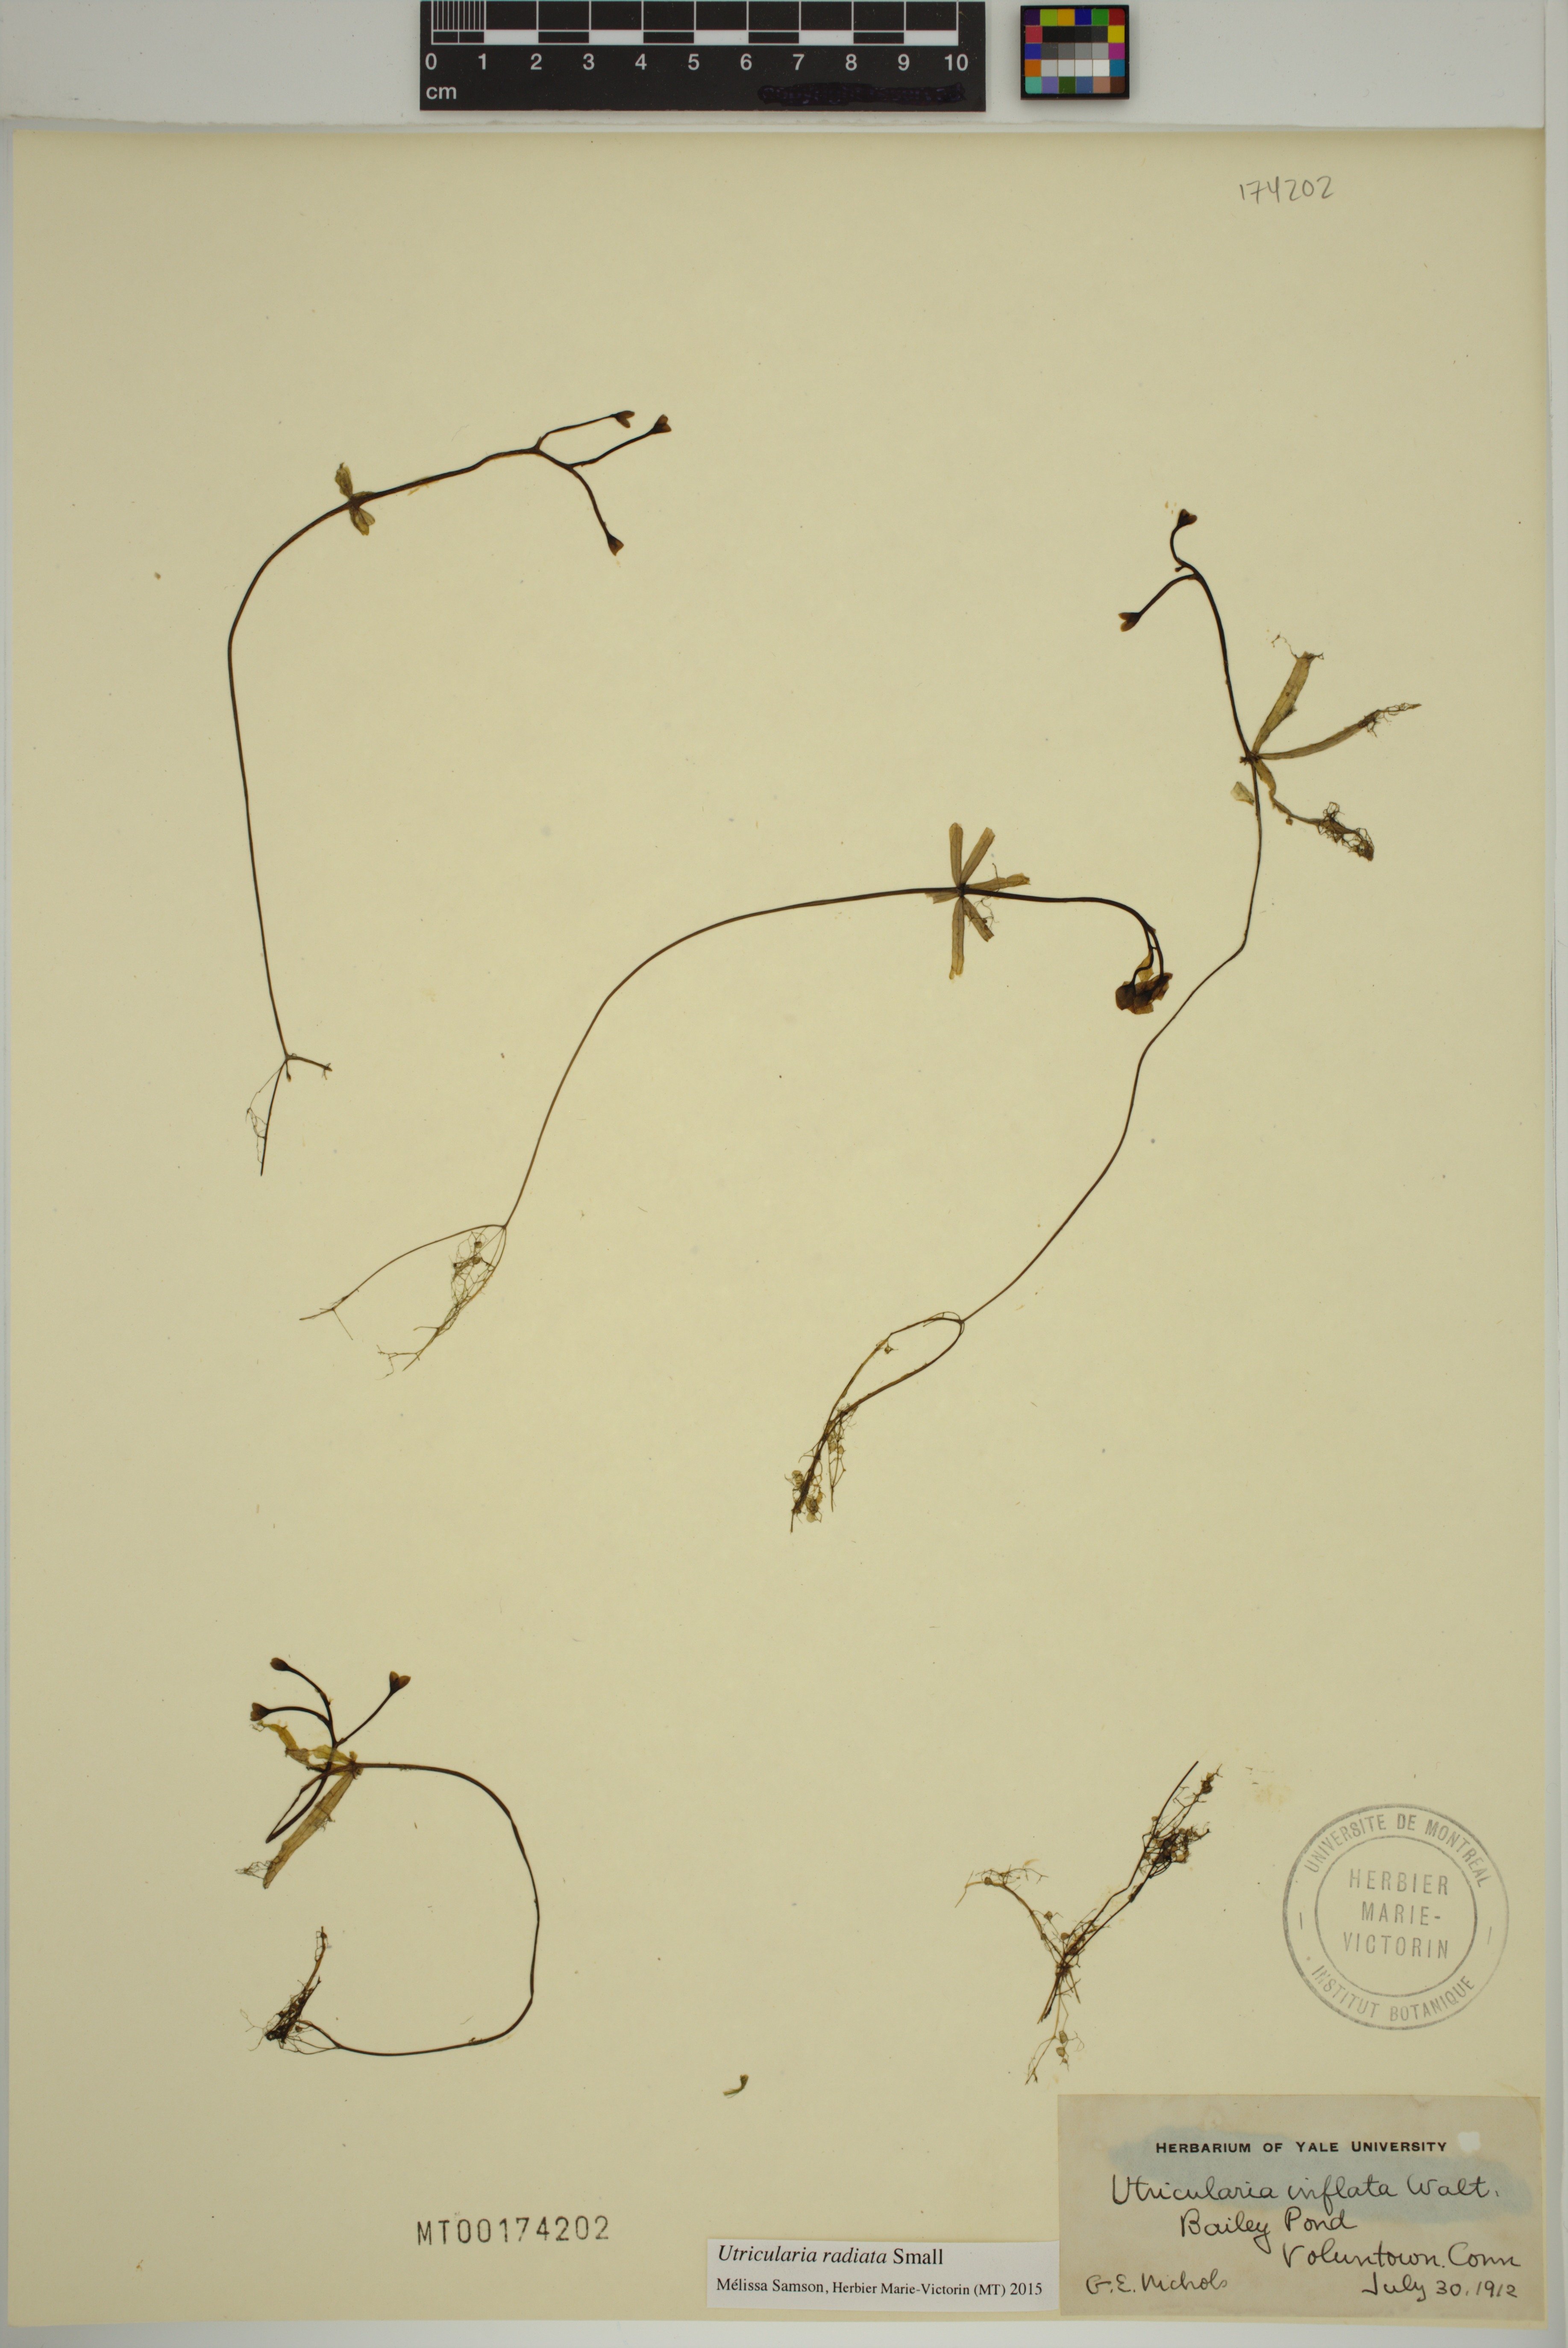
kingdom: Plantae
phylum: Tracheophyta
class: Magnoliopsida
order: Lamiales
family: Lentibulariaceae
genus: Utricularia
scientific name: Utricularia radiata
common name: Floating bladderwort
